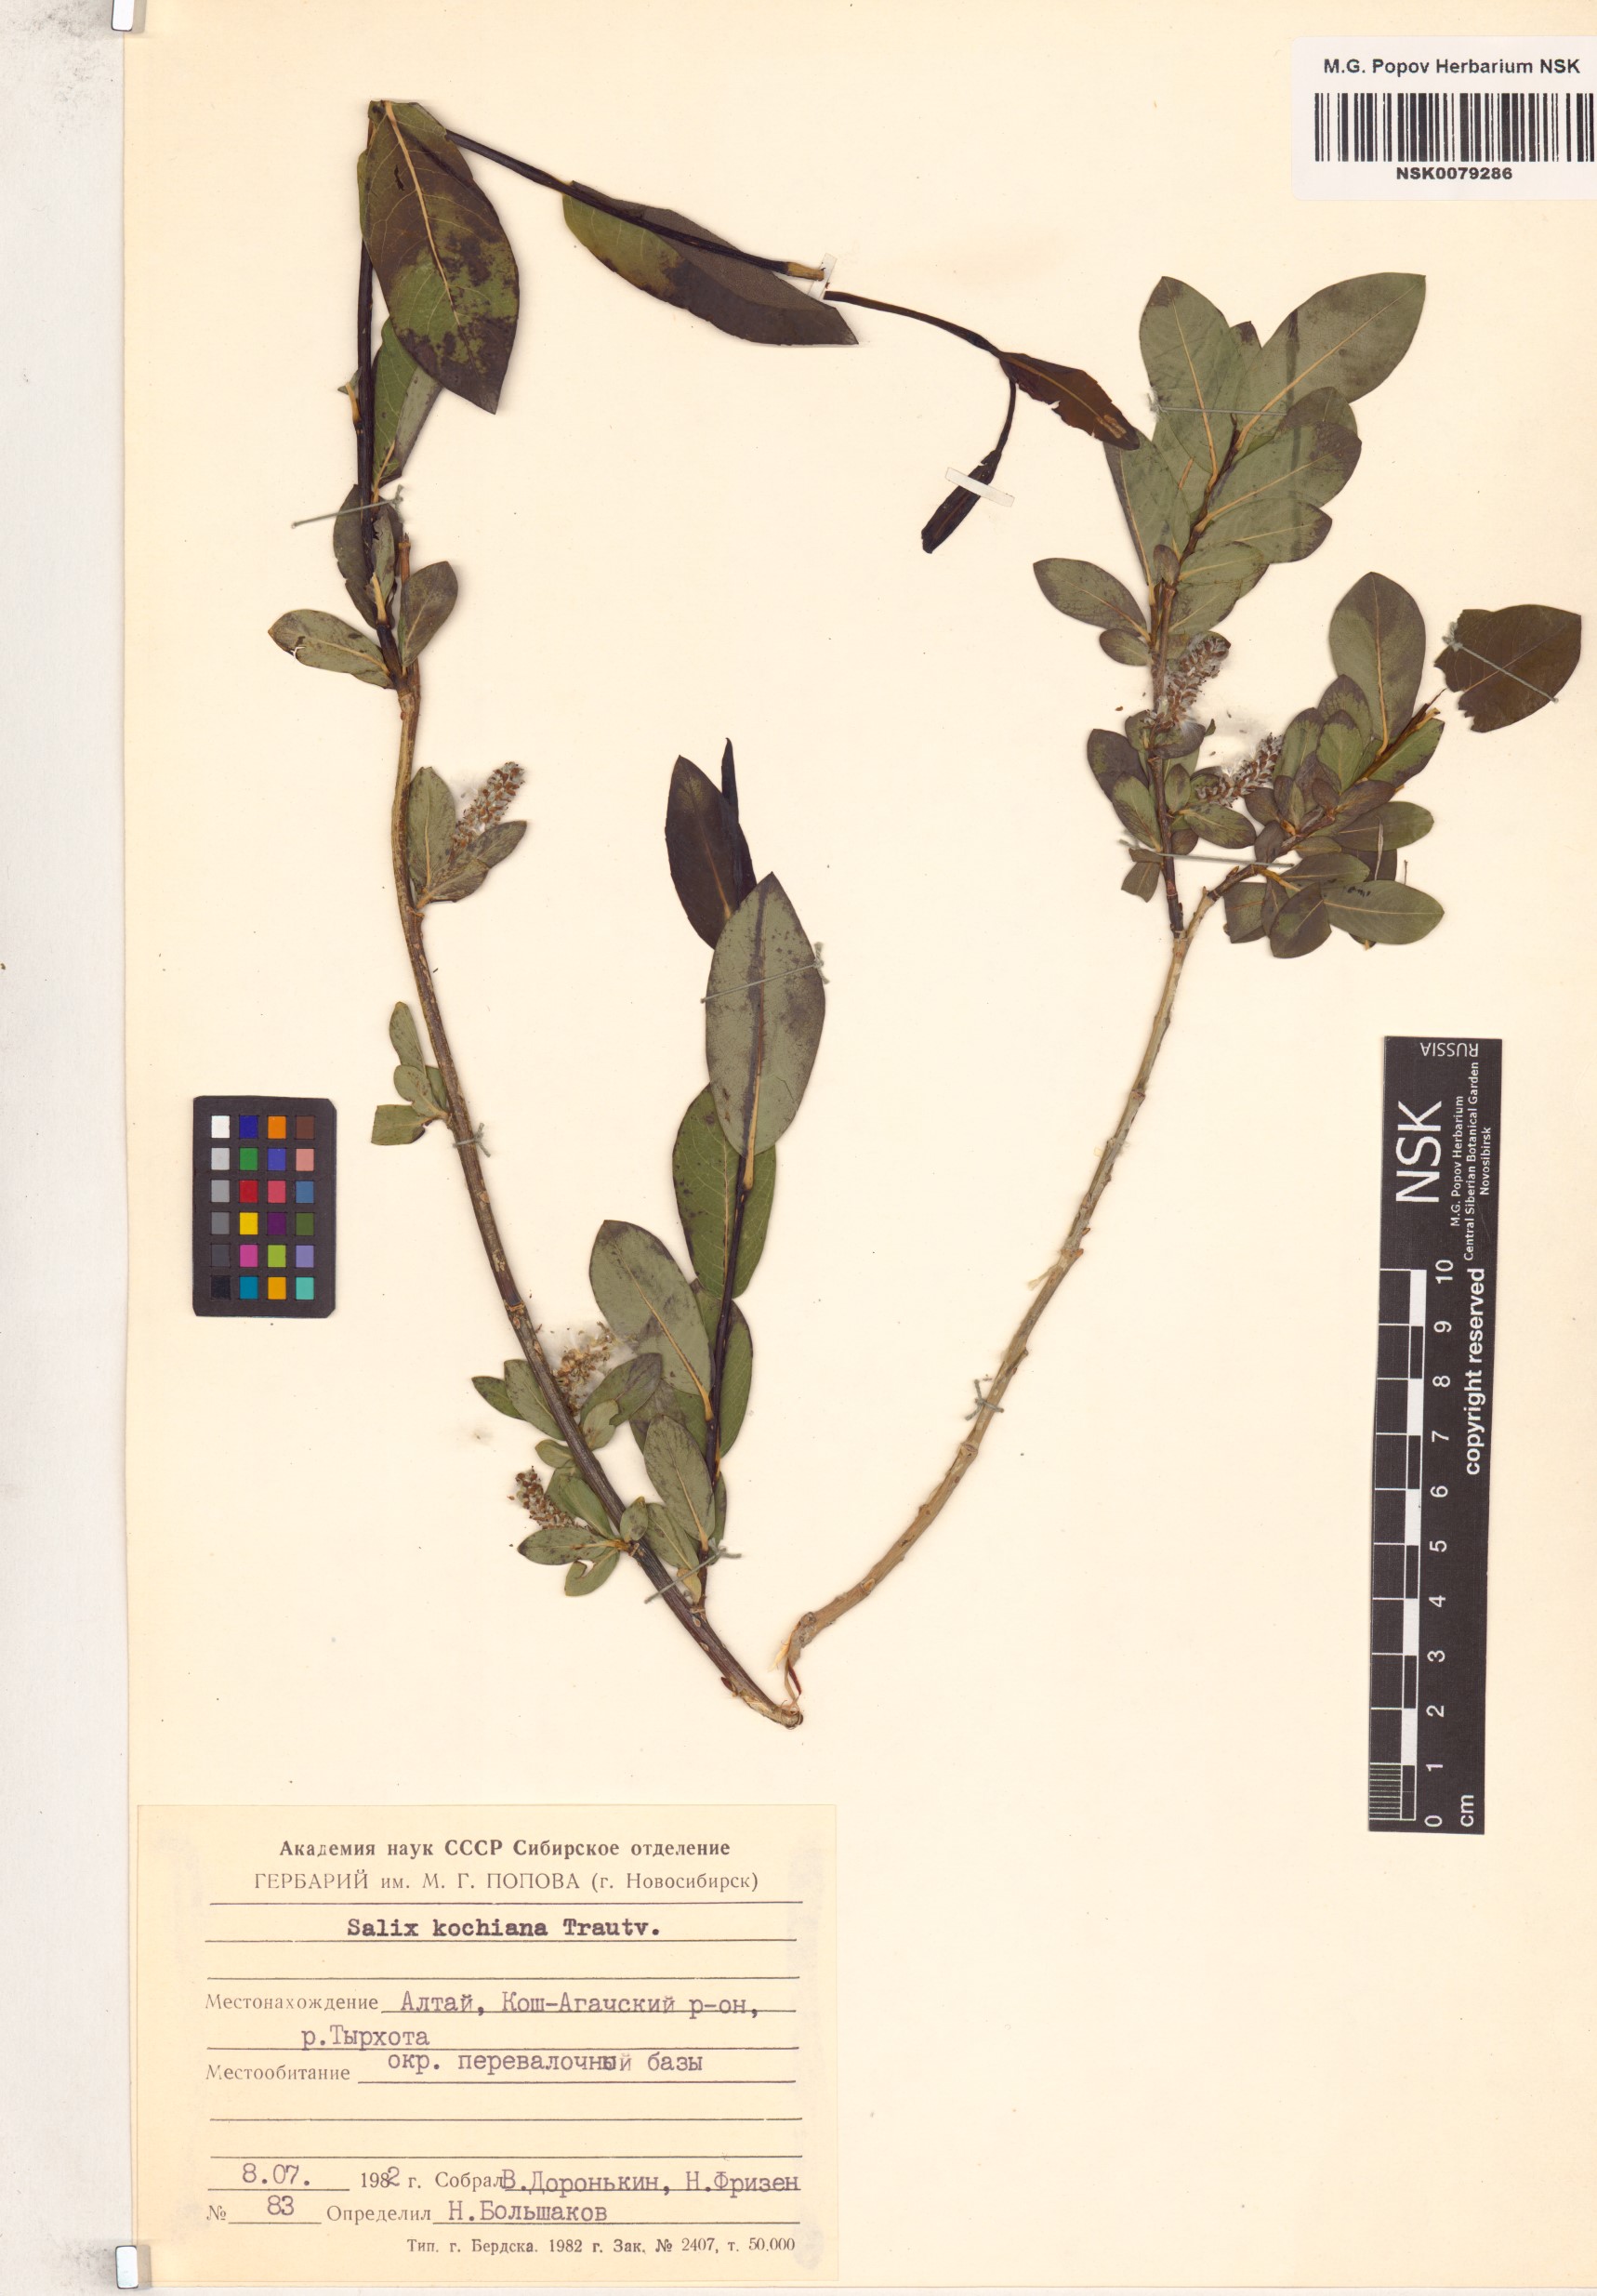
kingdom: Plantae
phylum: Tracheophyta
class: Magnoliopsida
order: Malpighiales
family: Salicaceae
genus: Salix
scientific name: Salix kochiana
